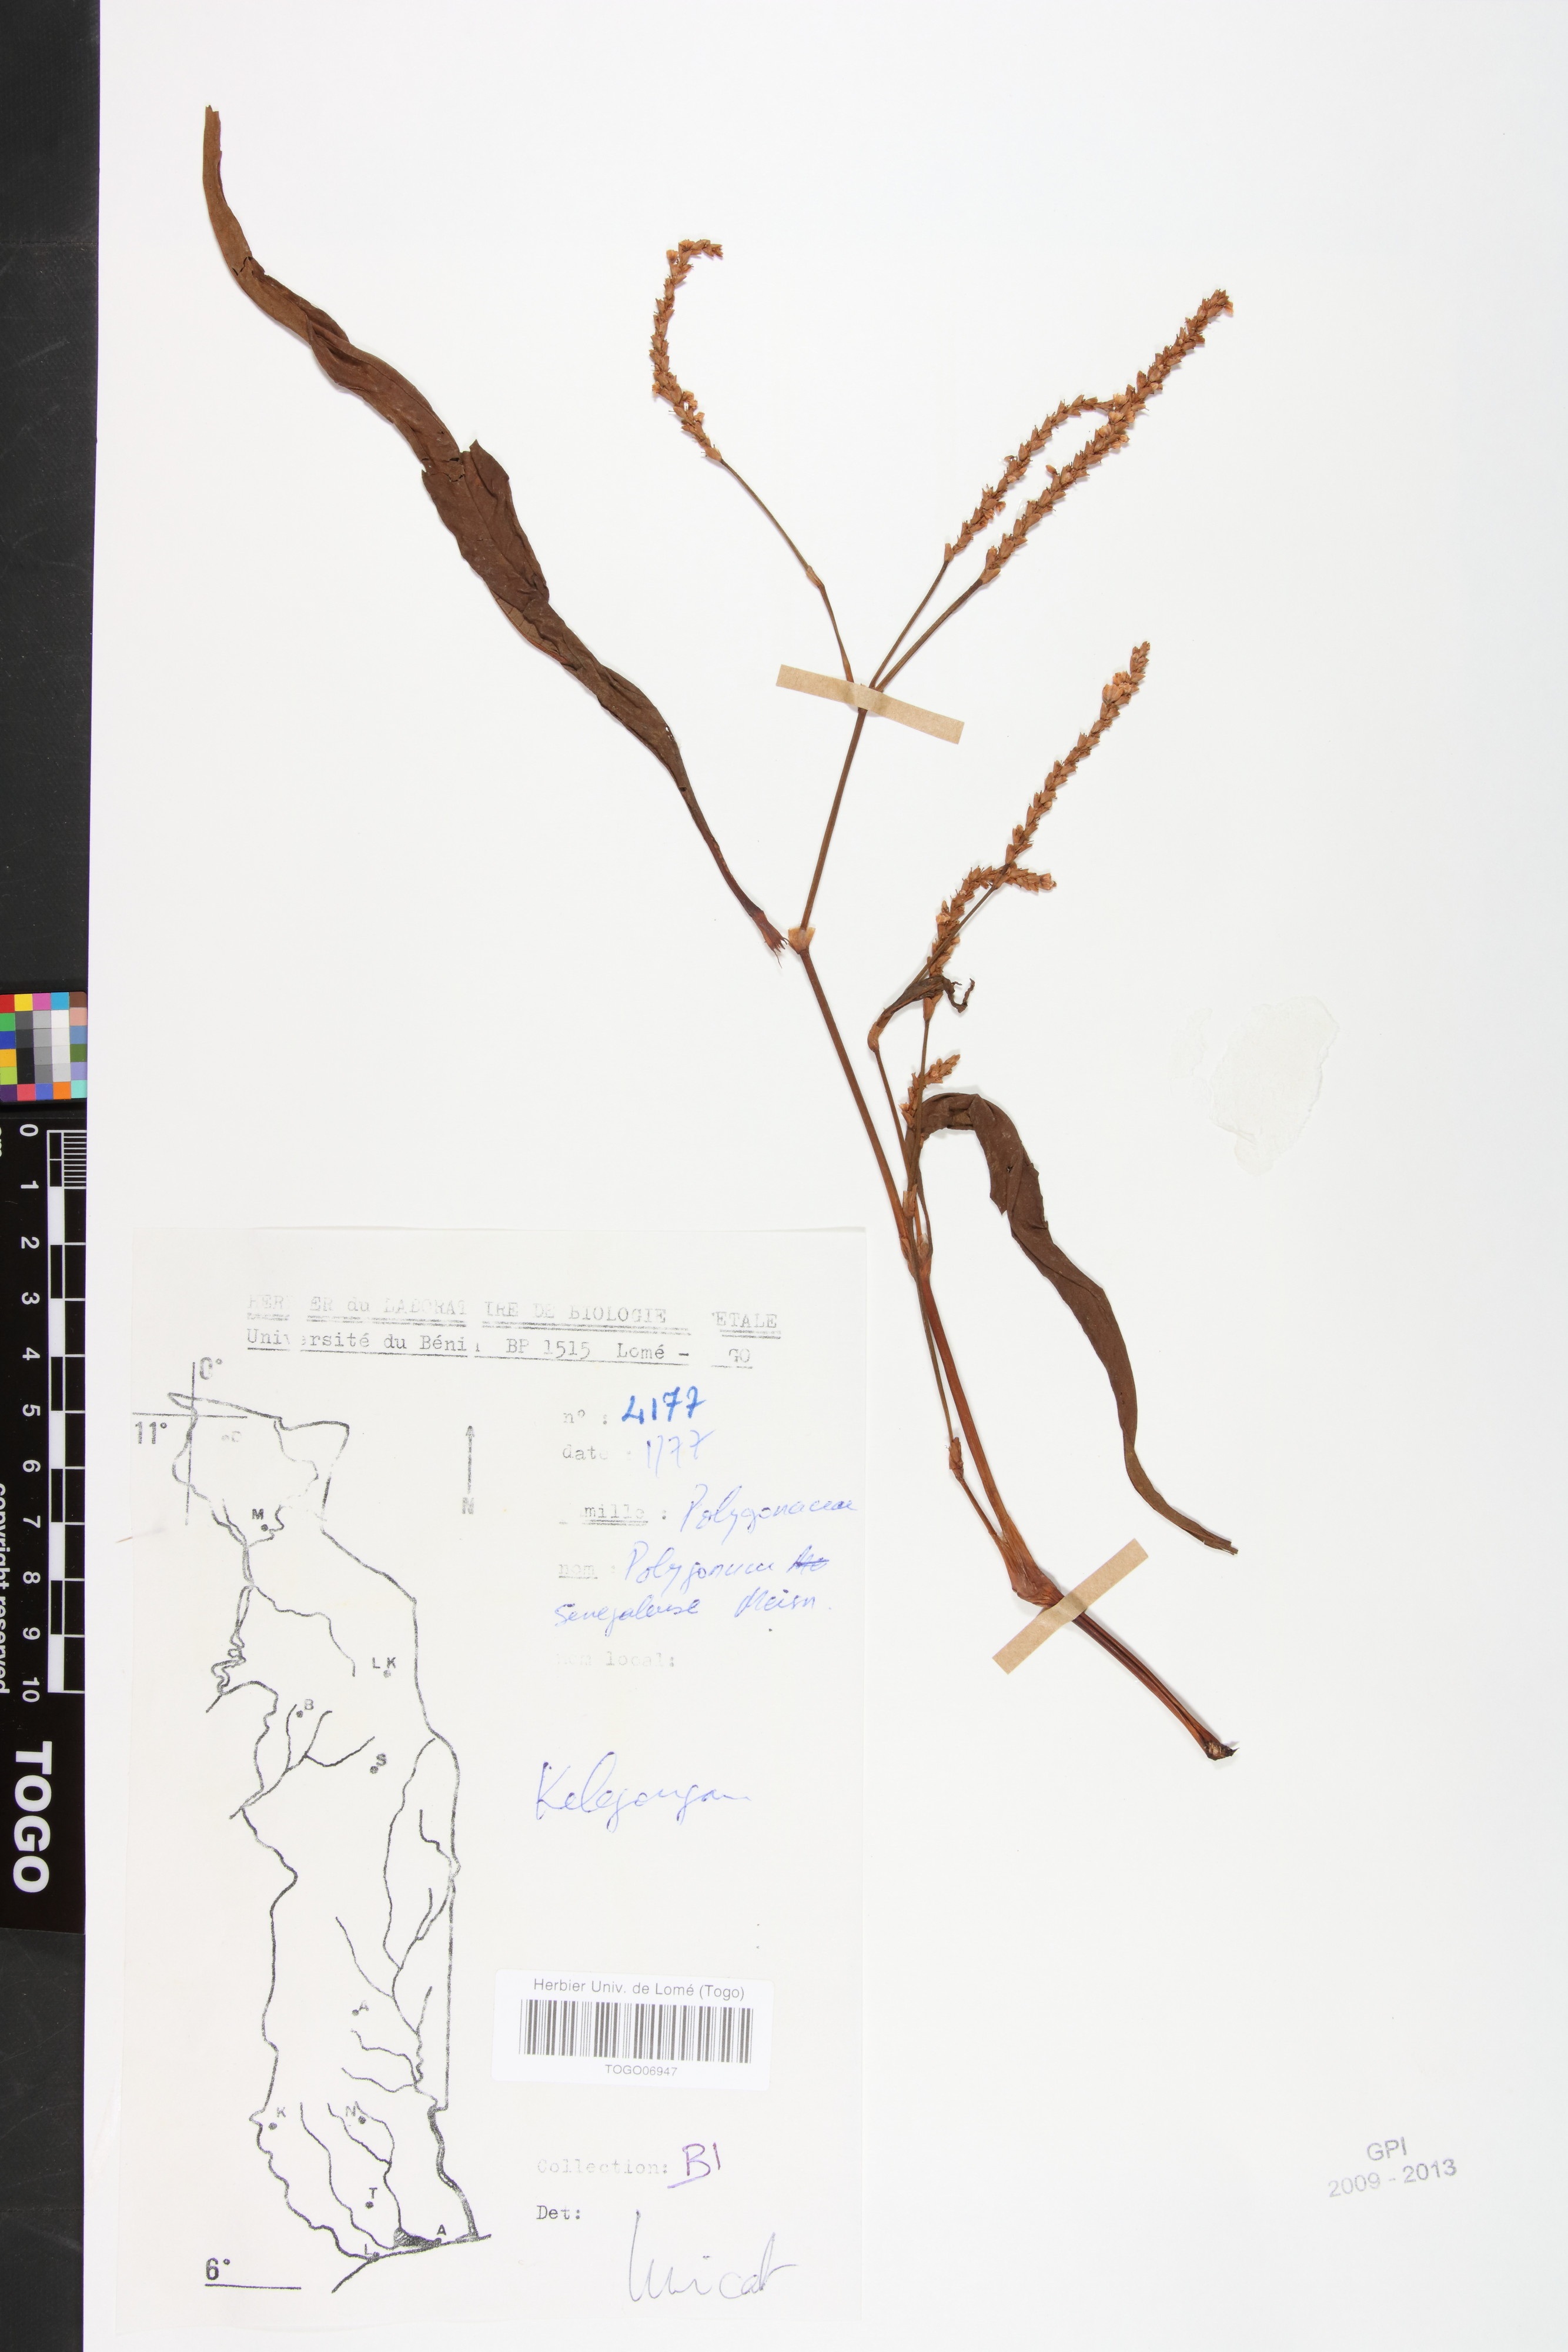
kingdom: Plantae
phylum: Tracheophyta
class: Magnoliopsida
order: Caryophyllales
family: Polygonaceae
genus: Persicaria
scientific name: Persicaria senegalensis
